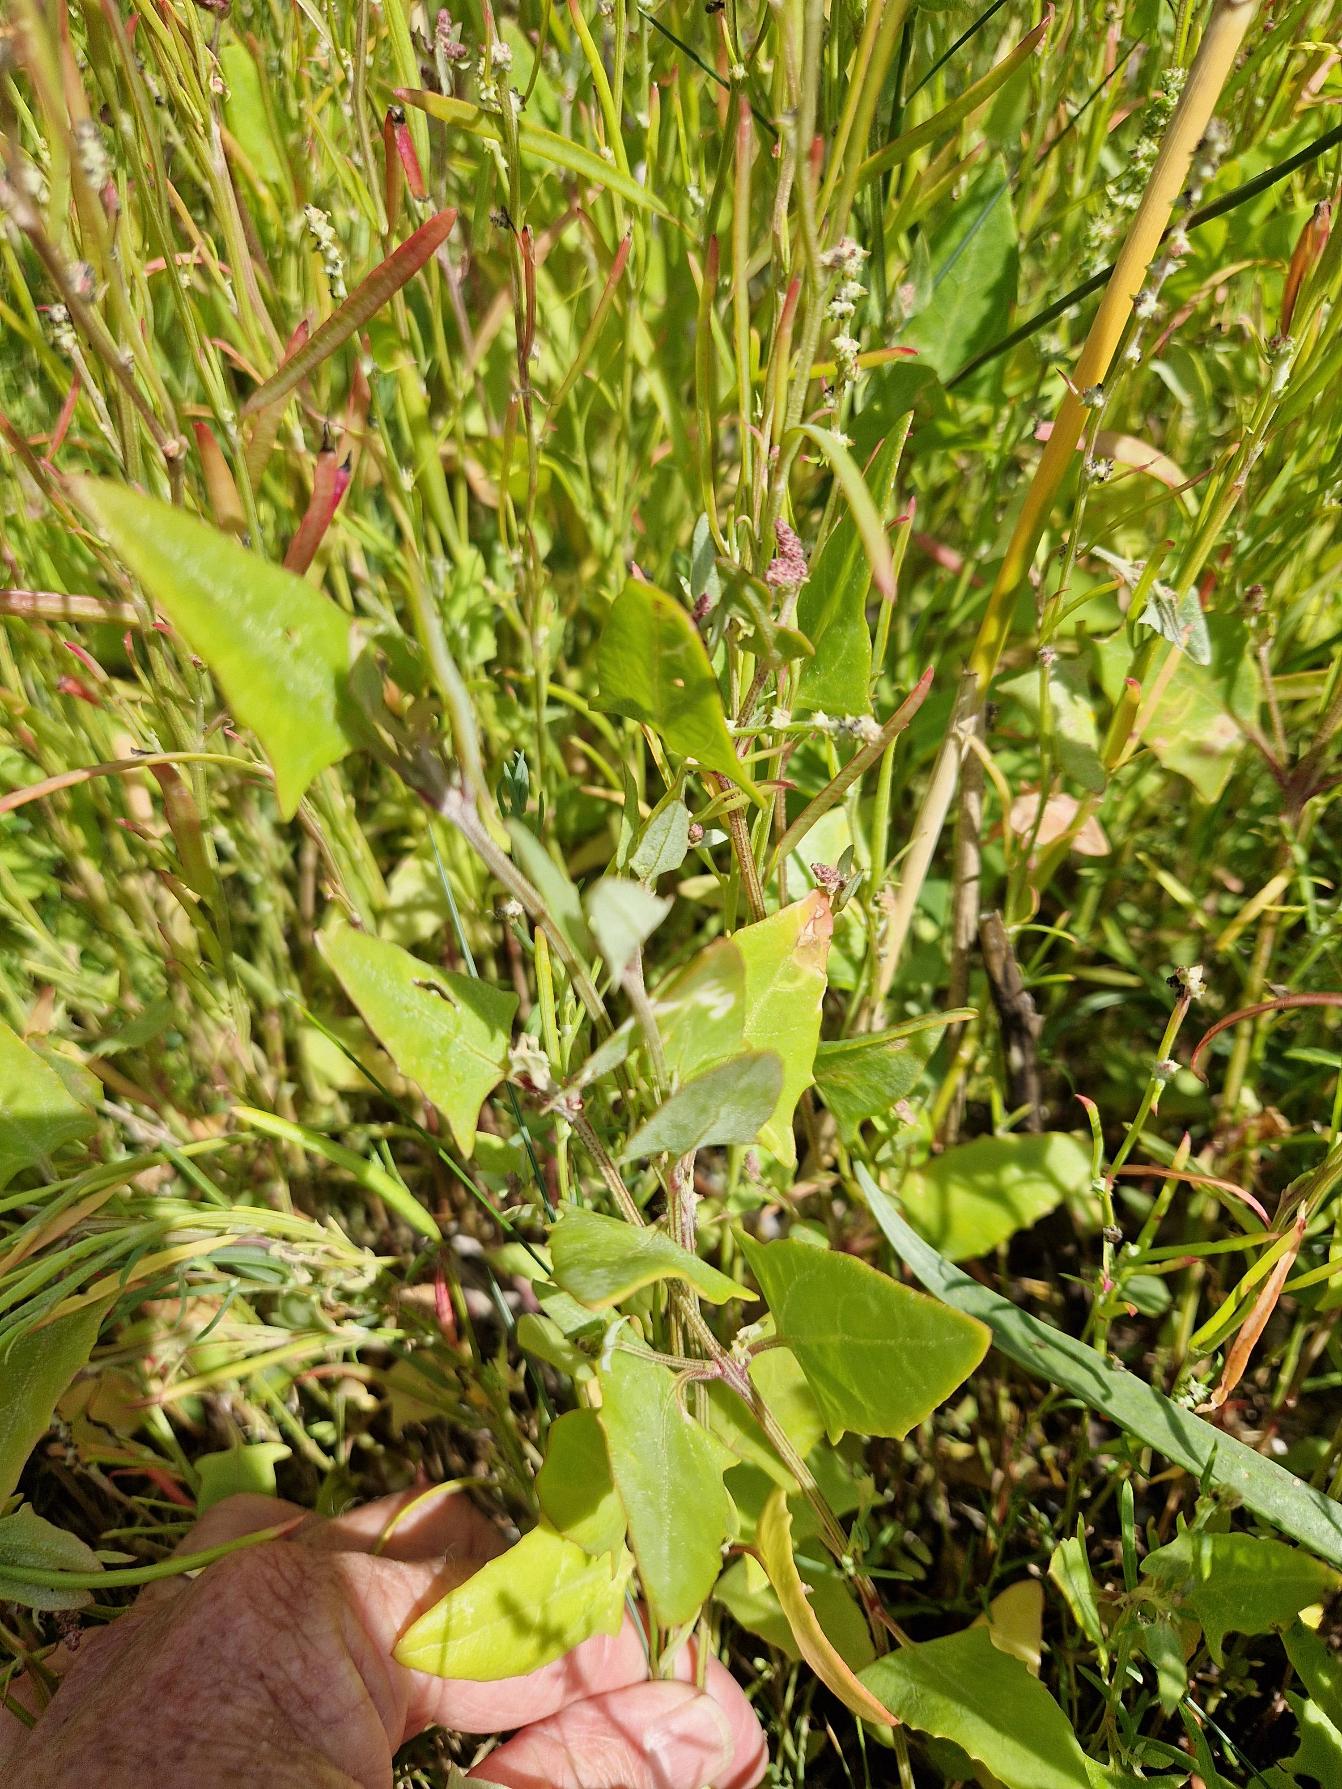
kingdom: Plantae
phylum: Tracheophyta
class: Magnoliopsida
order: Caryophyllales
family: Amaranthaceae
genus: Atriplex
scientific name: Atriplex prostrata
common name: Spyd-mælde
